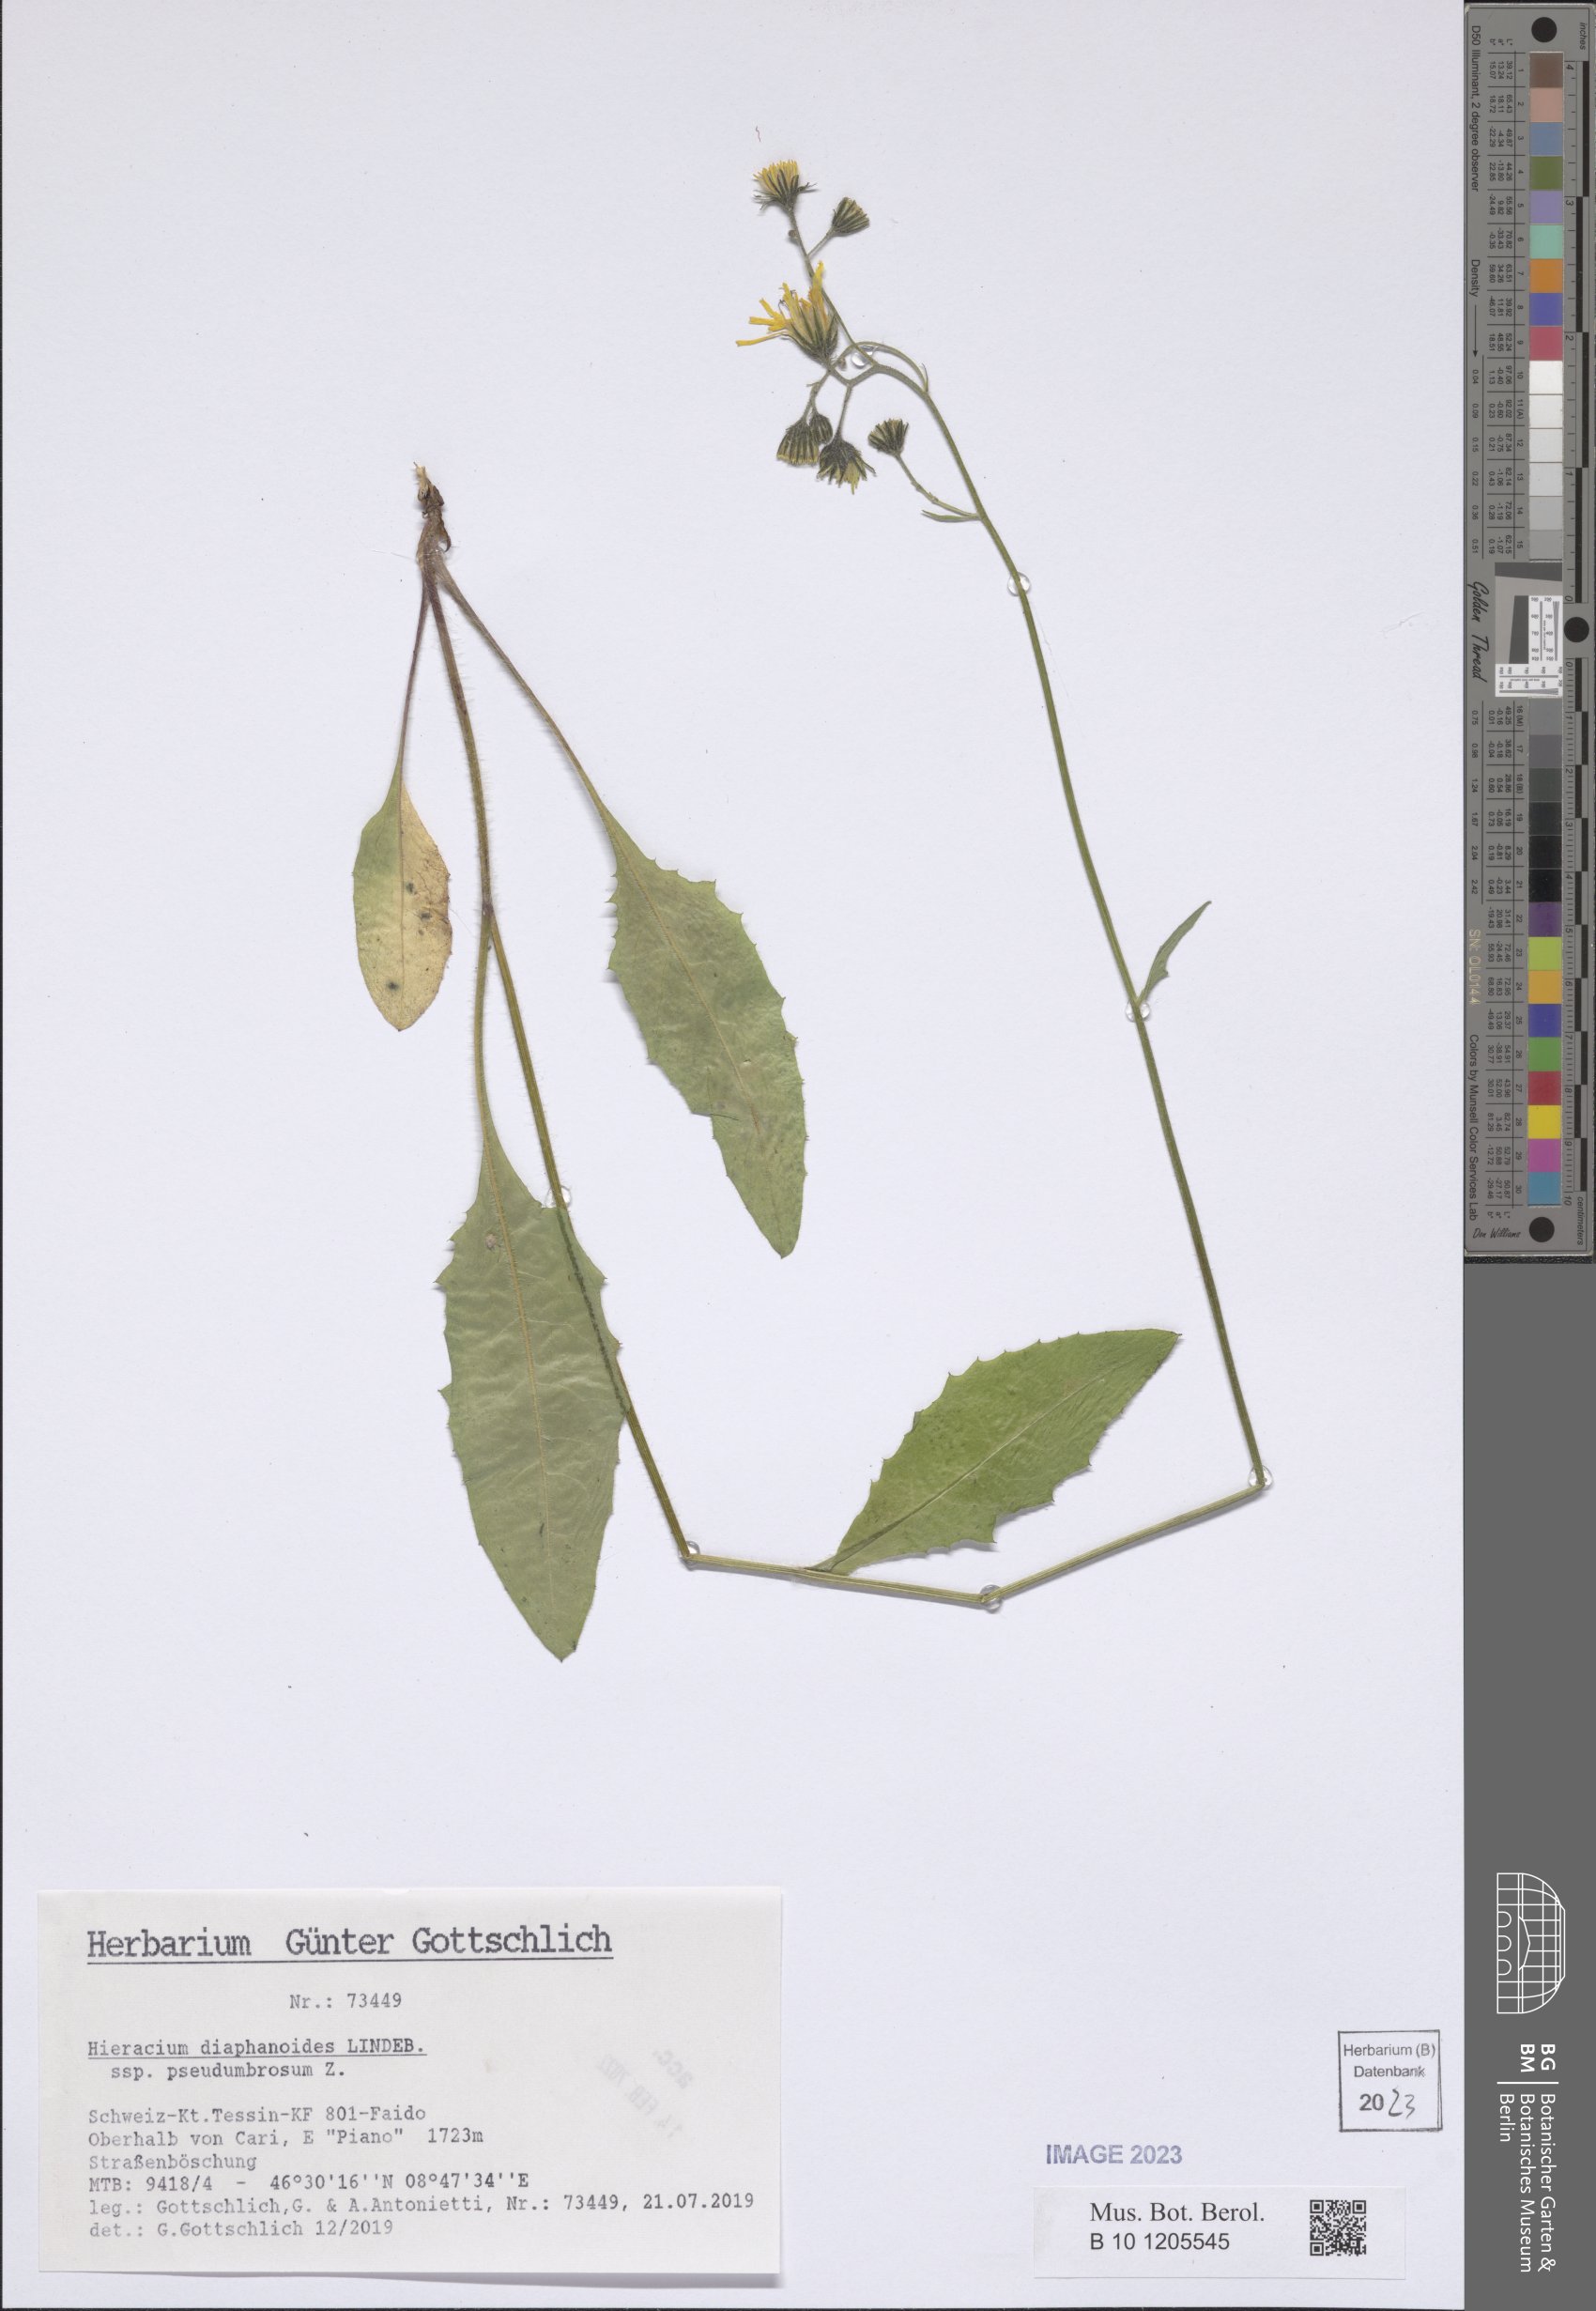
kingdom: Plantae
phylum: Tracheophyta
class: Magnoliopsida
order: Asterales
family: Asteraceae
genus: Hieracium
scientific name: Hieracium diaphanoides
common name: Fine-bracted hawkweed
